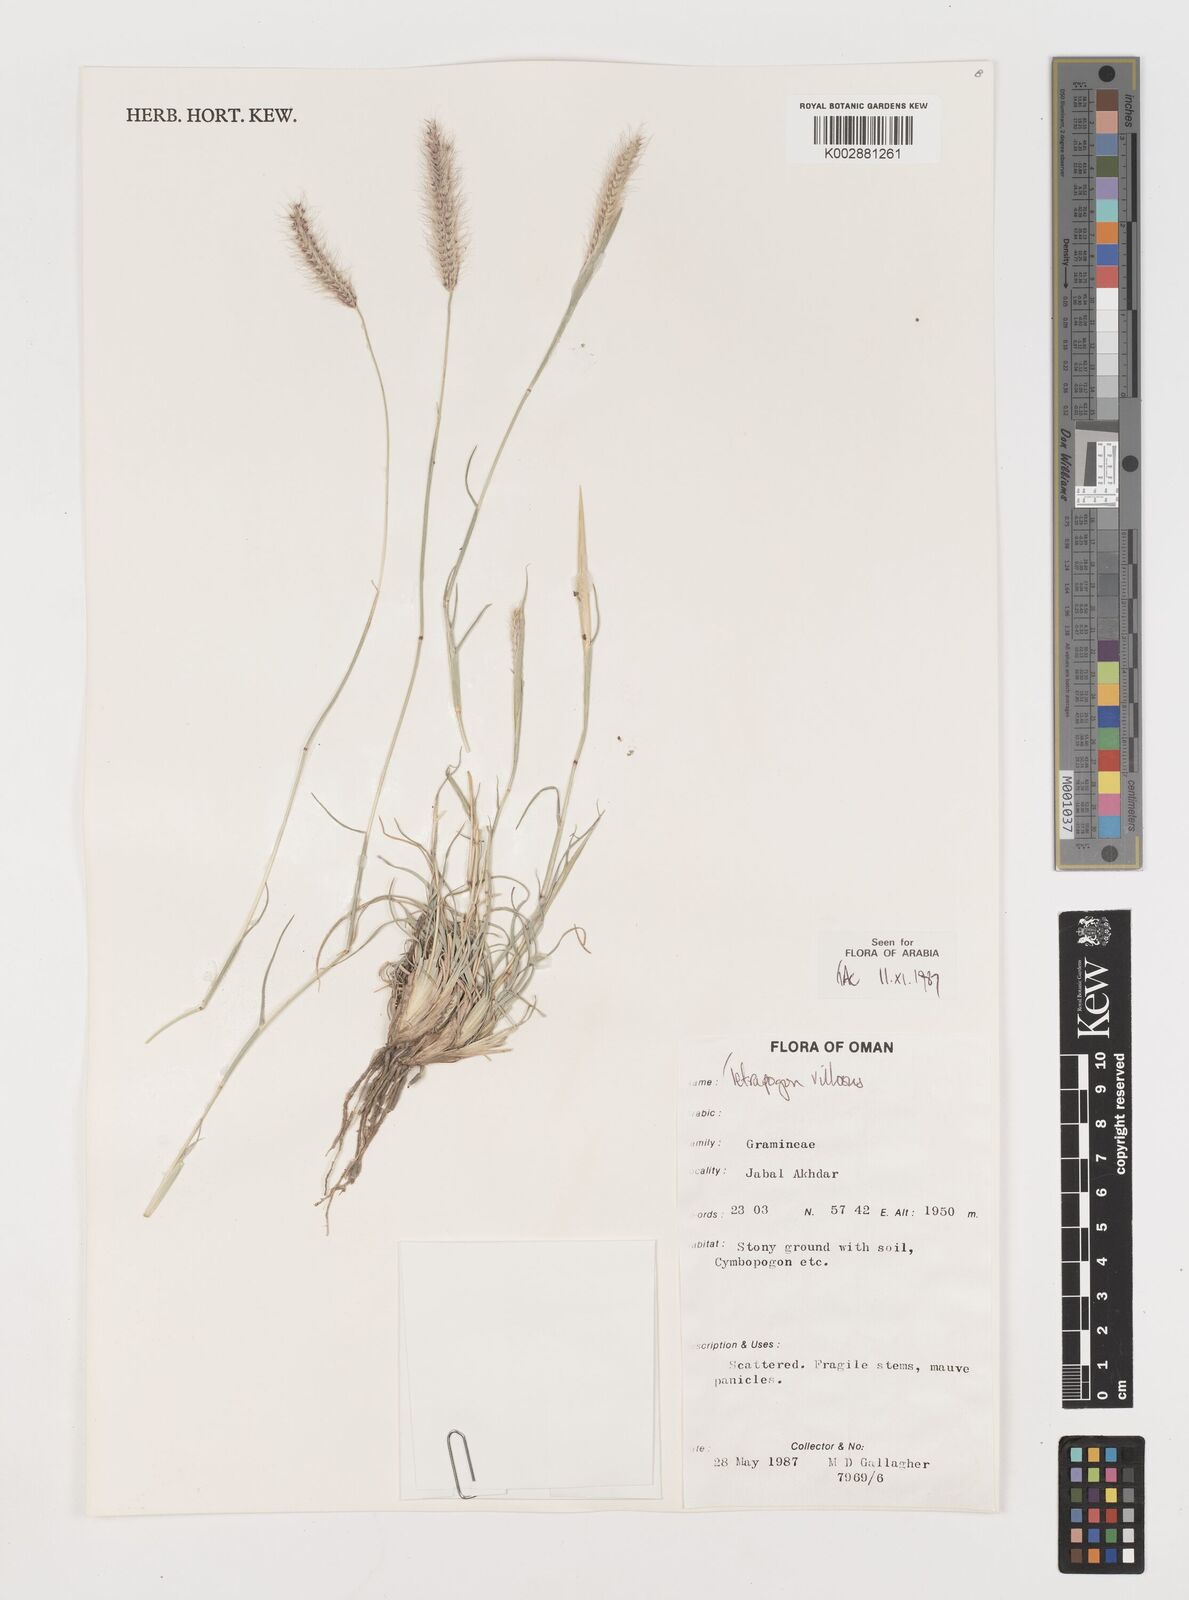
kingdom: Plantae
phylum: Tracheophyta
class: Liliopsida
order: Poales
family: Poaceae
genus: Tetrapogon
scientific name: Tetrapogon villosus
